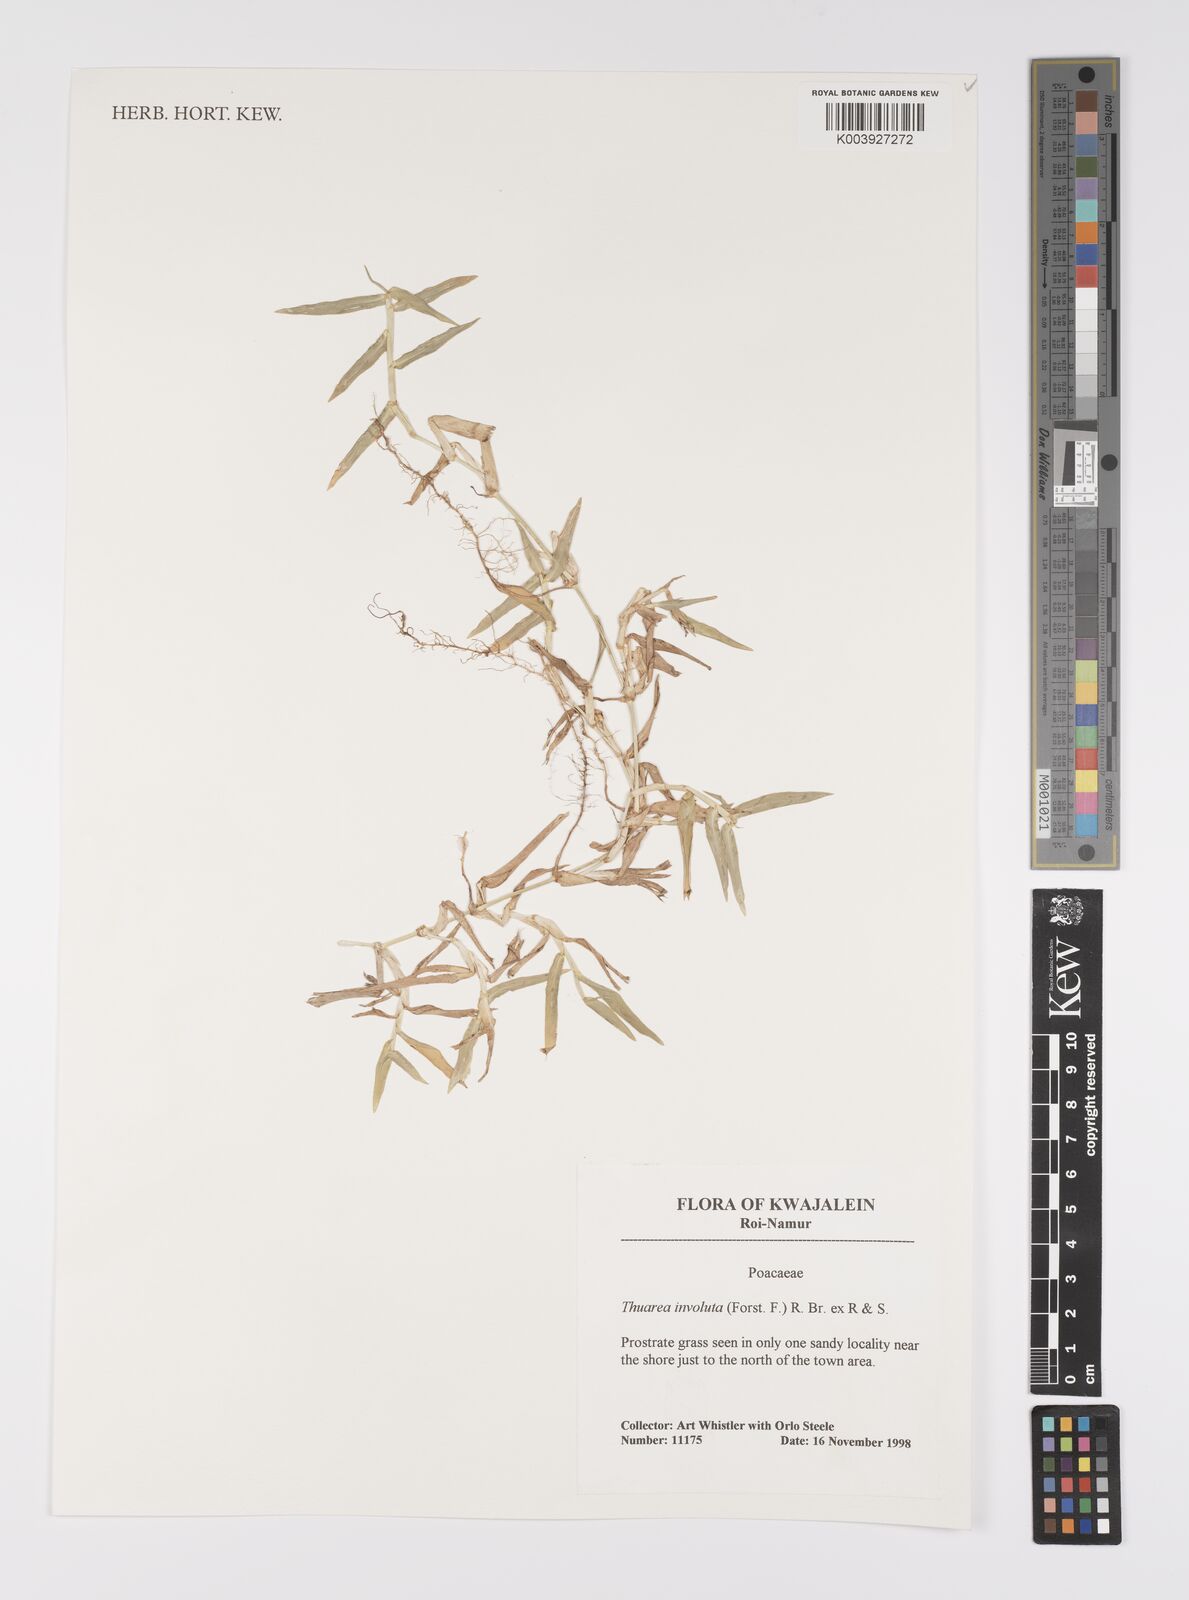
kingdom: Plantae
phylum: Tracheophyta
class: Liliopsida
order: Poales
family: Poaceae
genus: Thuarea
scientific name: Thuarea involuta
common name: Tropical beach grass
